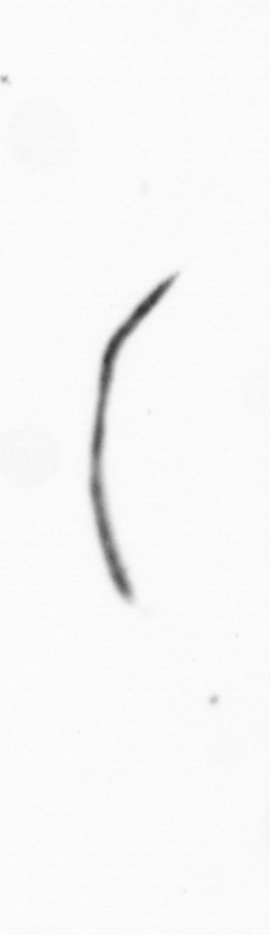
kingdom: Chromista
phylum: Ochrophyta
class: Bacillariophyceae
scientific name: Bacillariophyceae
